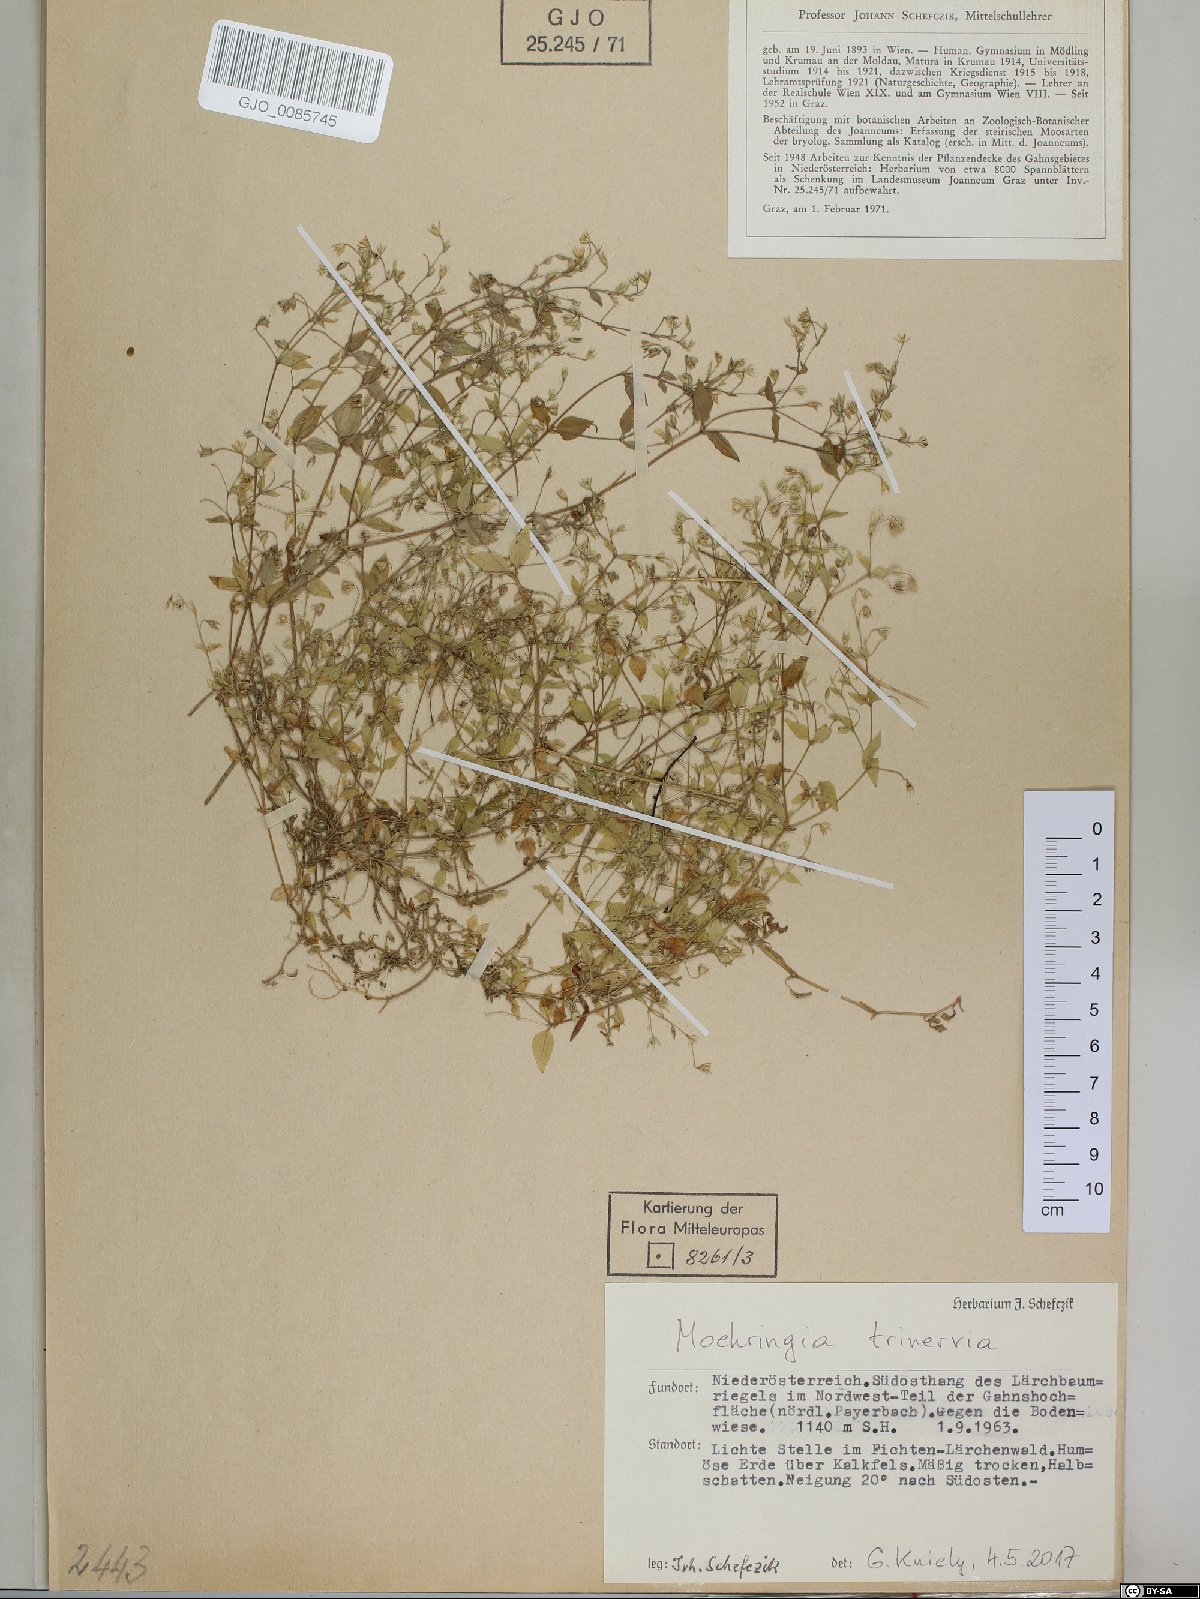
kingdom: Plantae
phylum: Tracheophyta
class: Magnoliopsida
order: Caryophyllales
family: Caryophyllaceae
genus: Moehringia
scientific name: Moehringia trinervia
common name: Three-nerved sandwort
